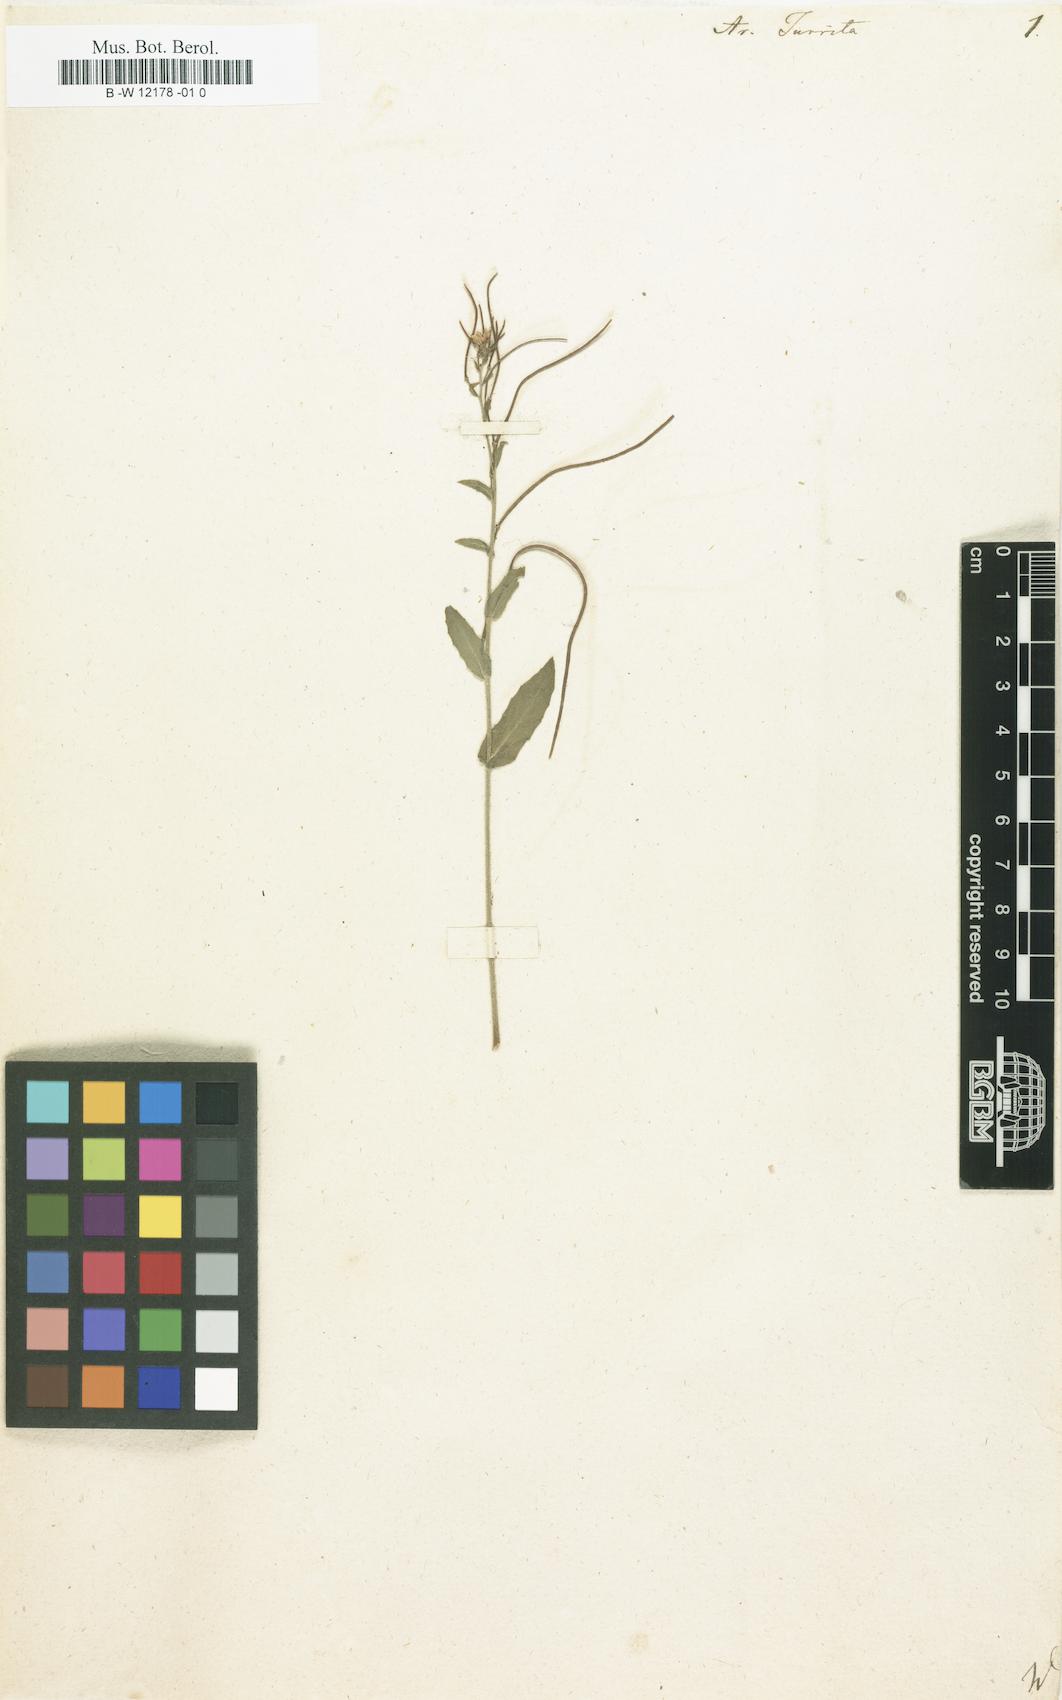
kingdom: Plantae
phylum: Tracheophyta
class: Magnoliopsida
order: Brassicales
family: Brassicaceae
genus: Pseudoturritis
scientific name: Pseudoturritis turrita
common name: Tower cress
